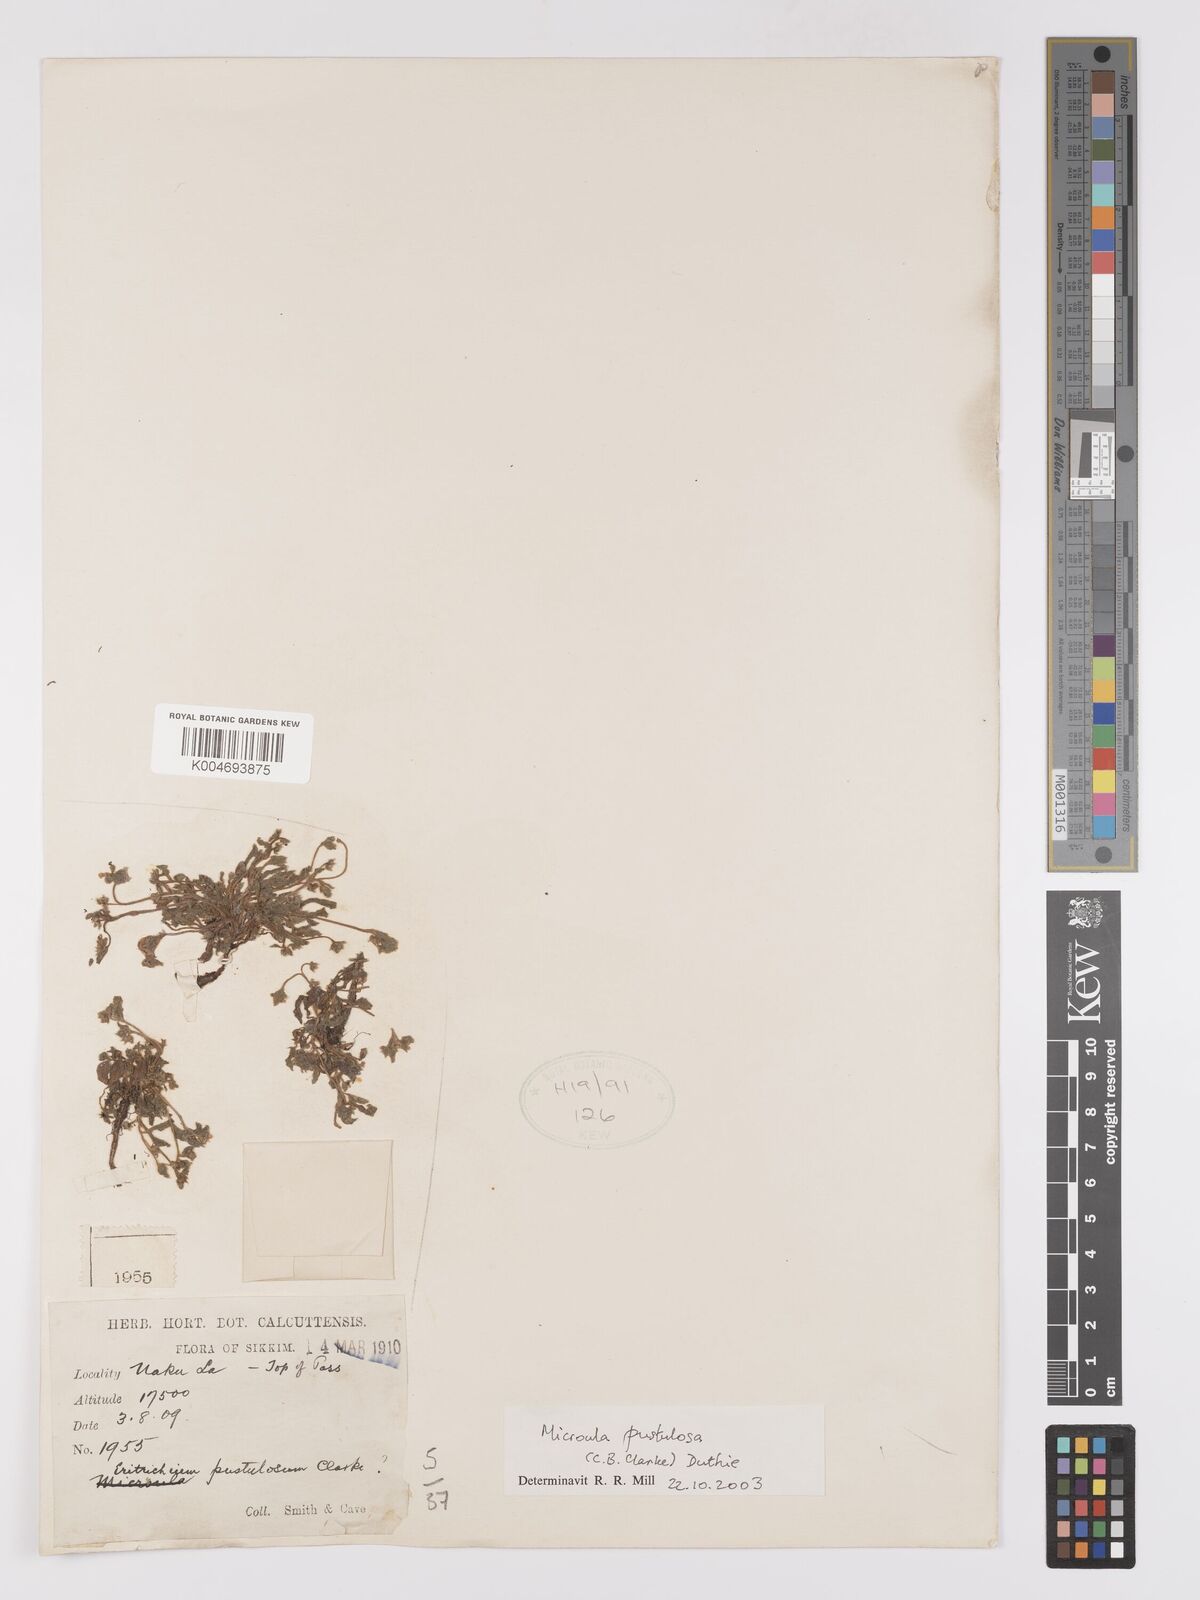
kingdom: Plantae
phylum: Tracheophyta
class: Magnoliopsida
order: Boraginales
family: Boraginaceae
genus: Microula
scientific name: Microula pustulosa
